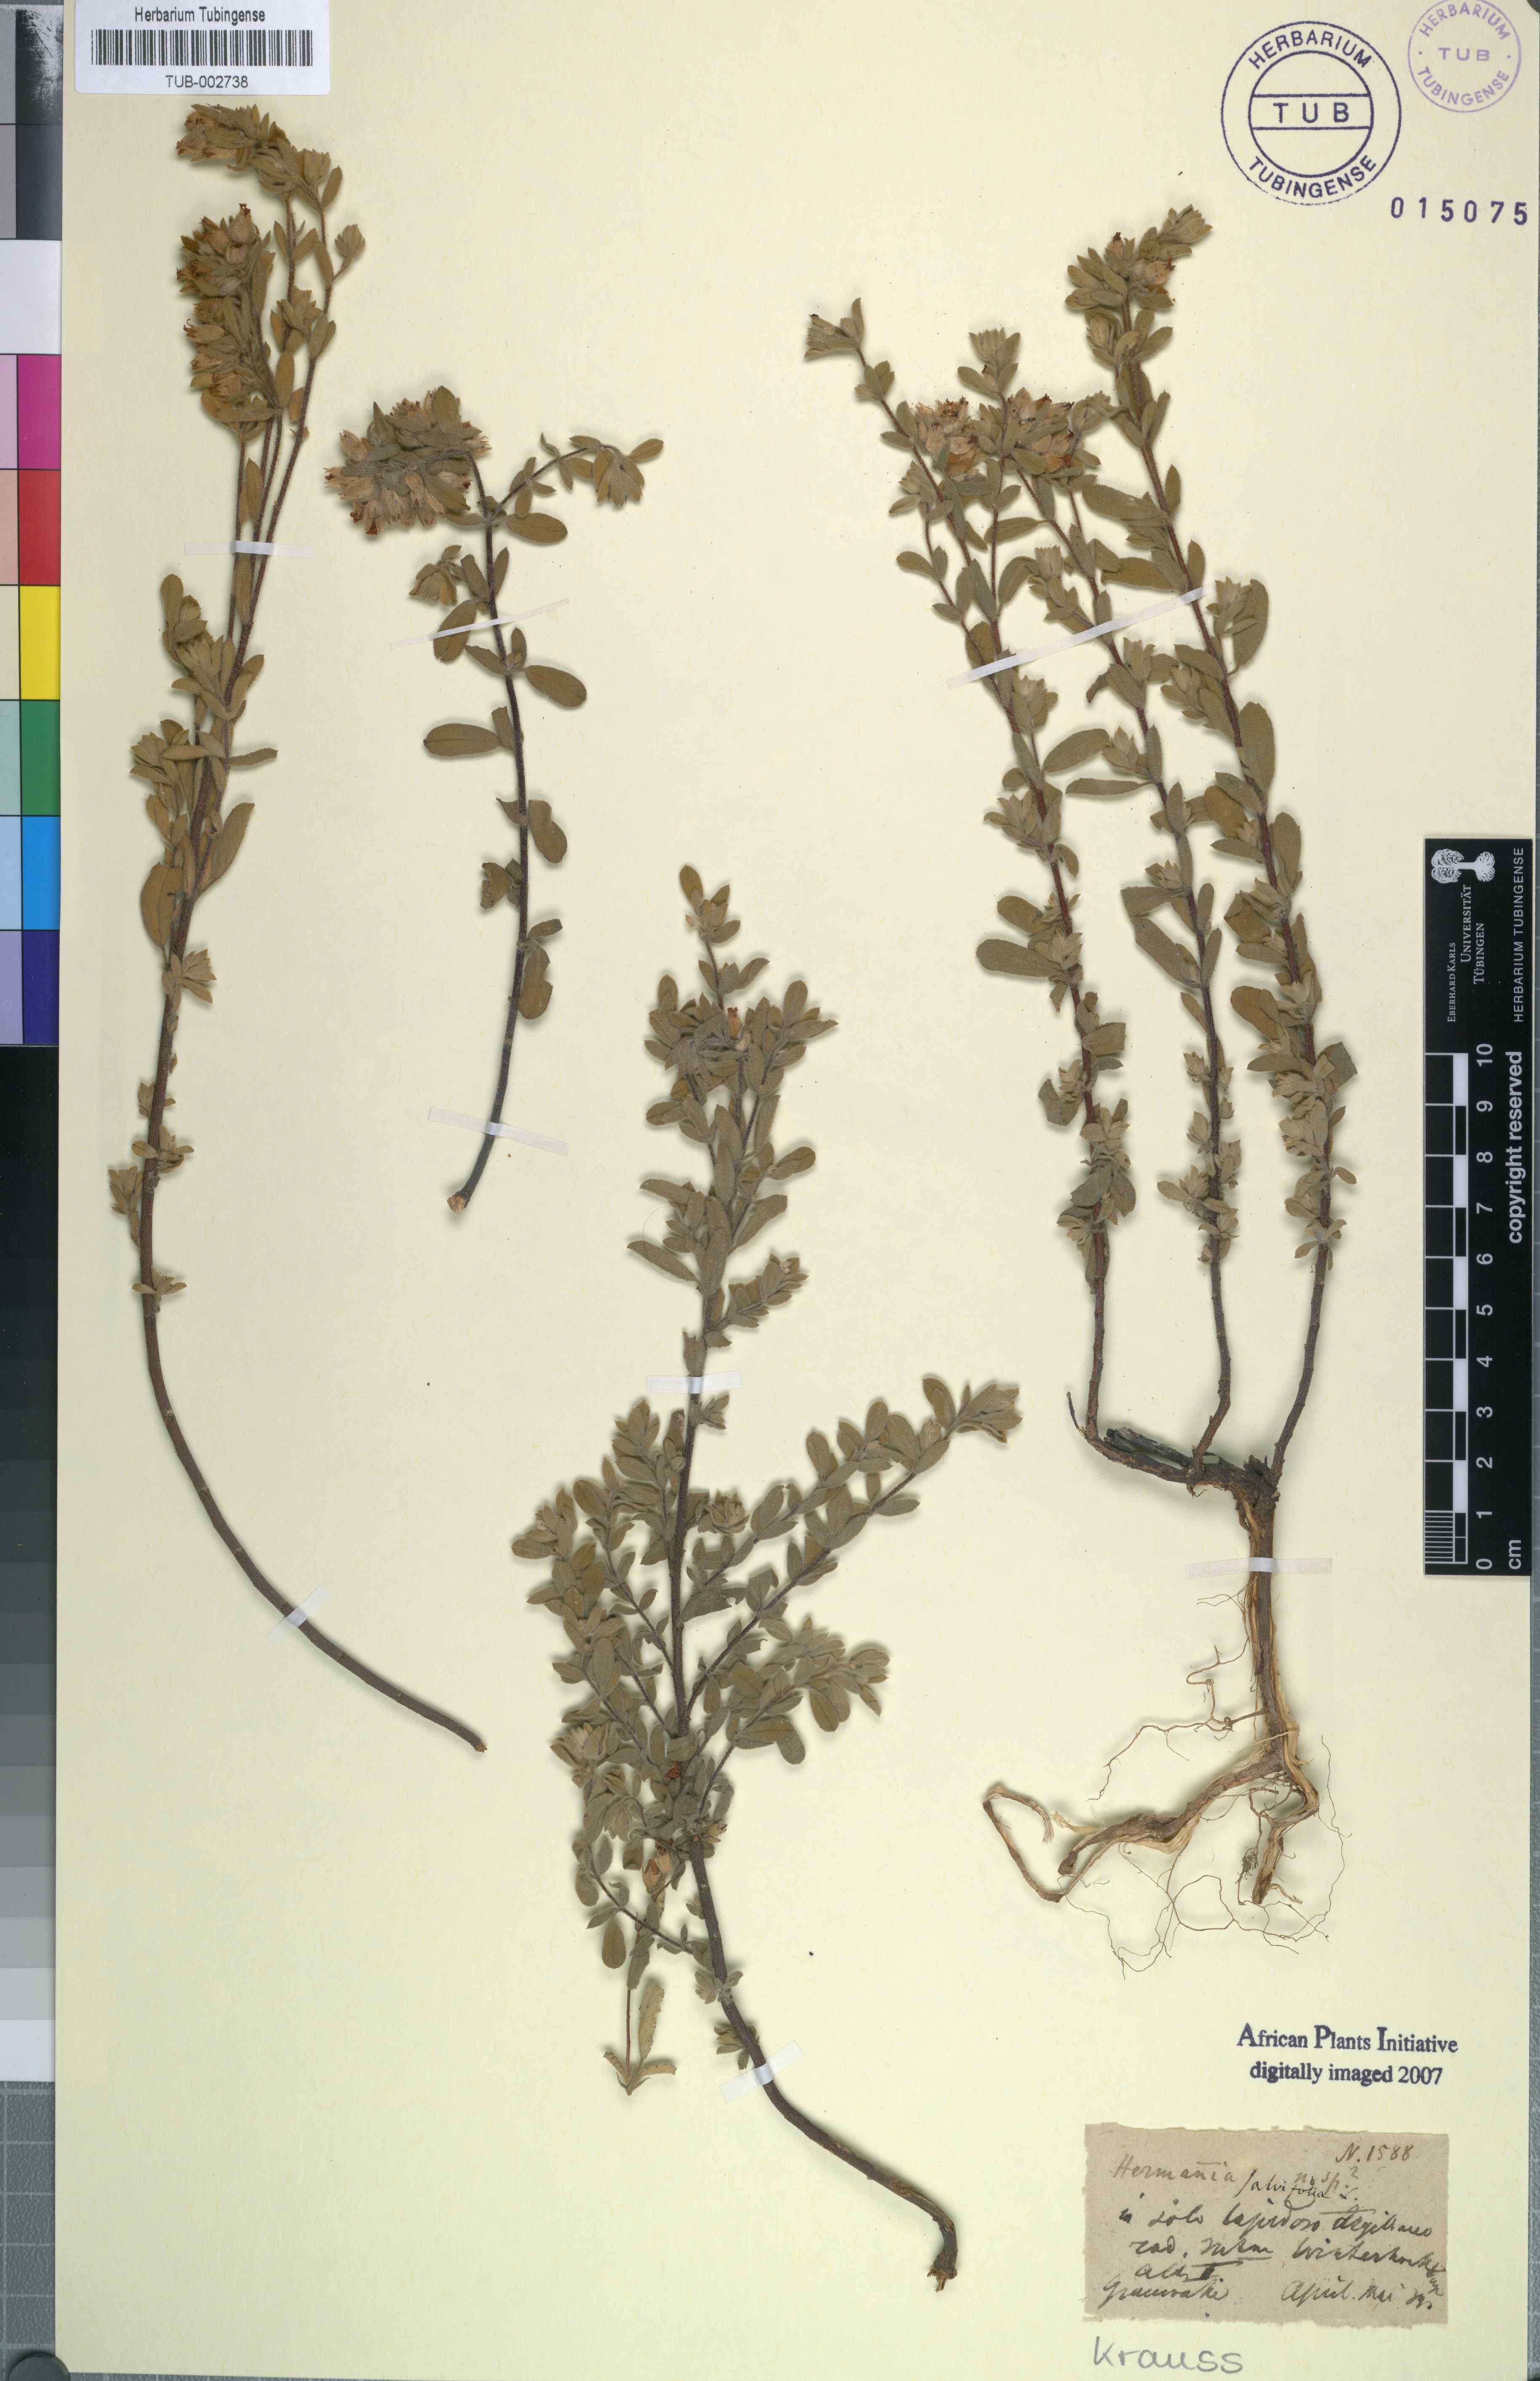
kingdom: Plantae
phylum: Tracheophyta
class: Magnoliopsida
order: Malvales
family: Malvaceae
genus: Hermannia
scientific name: Hermannia salviifolia
